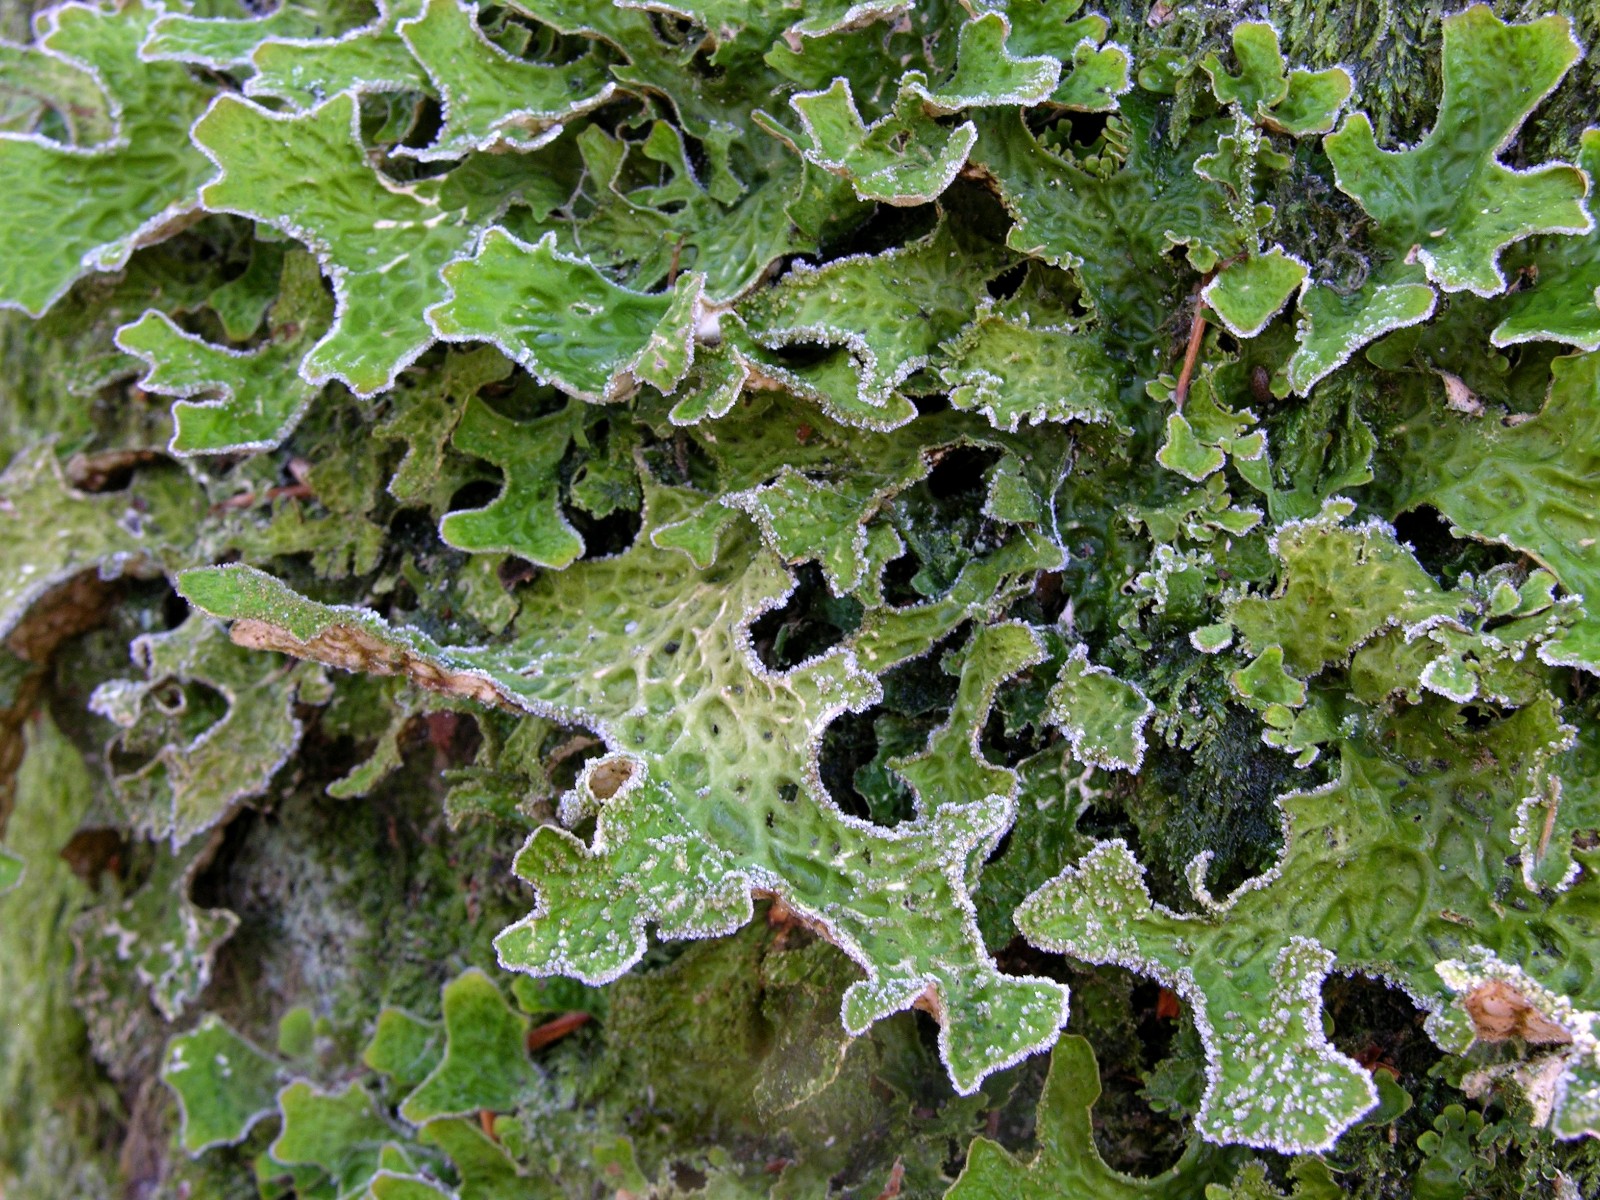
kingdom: Fungi
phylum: Ascomycota
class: Lecanoromycetes
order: Peltigerales
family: Lobariaceae
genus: Lobaria
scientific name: Lobaria pulmonaria
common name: almindelig lungelav
